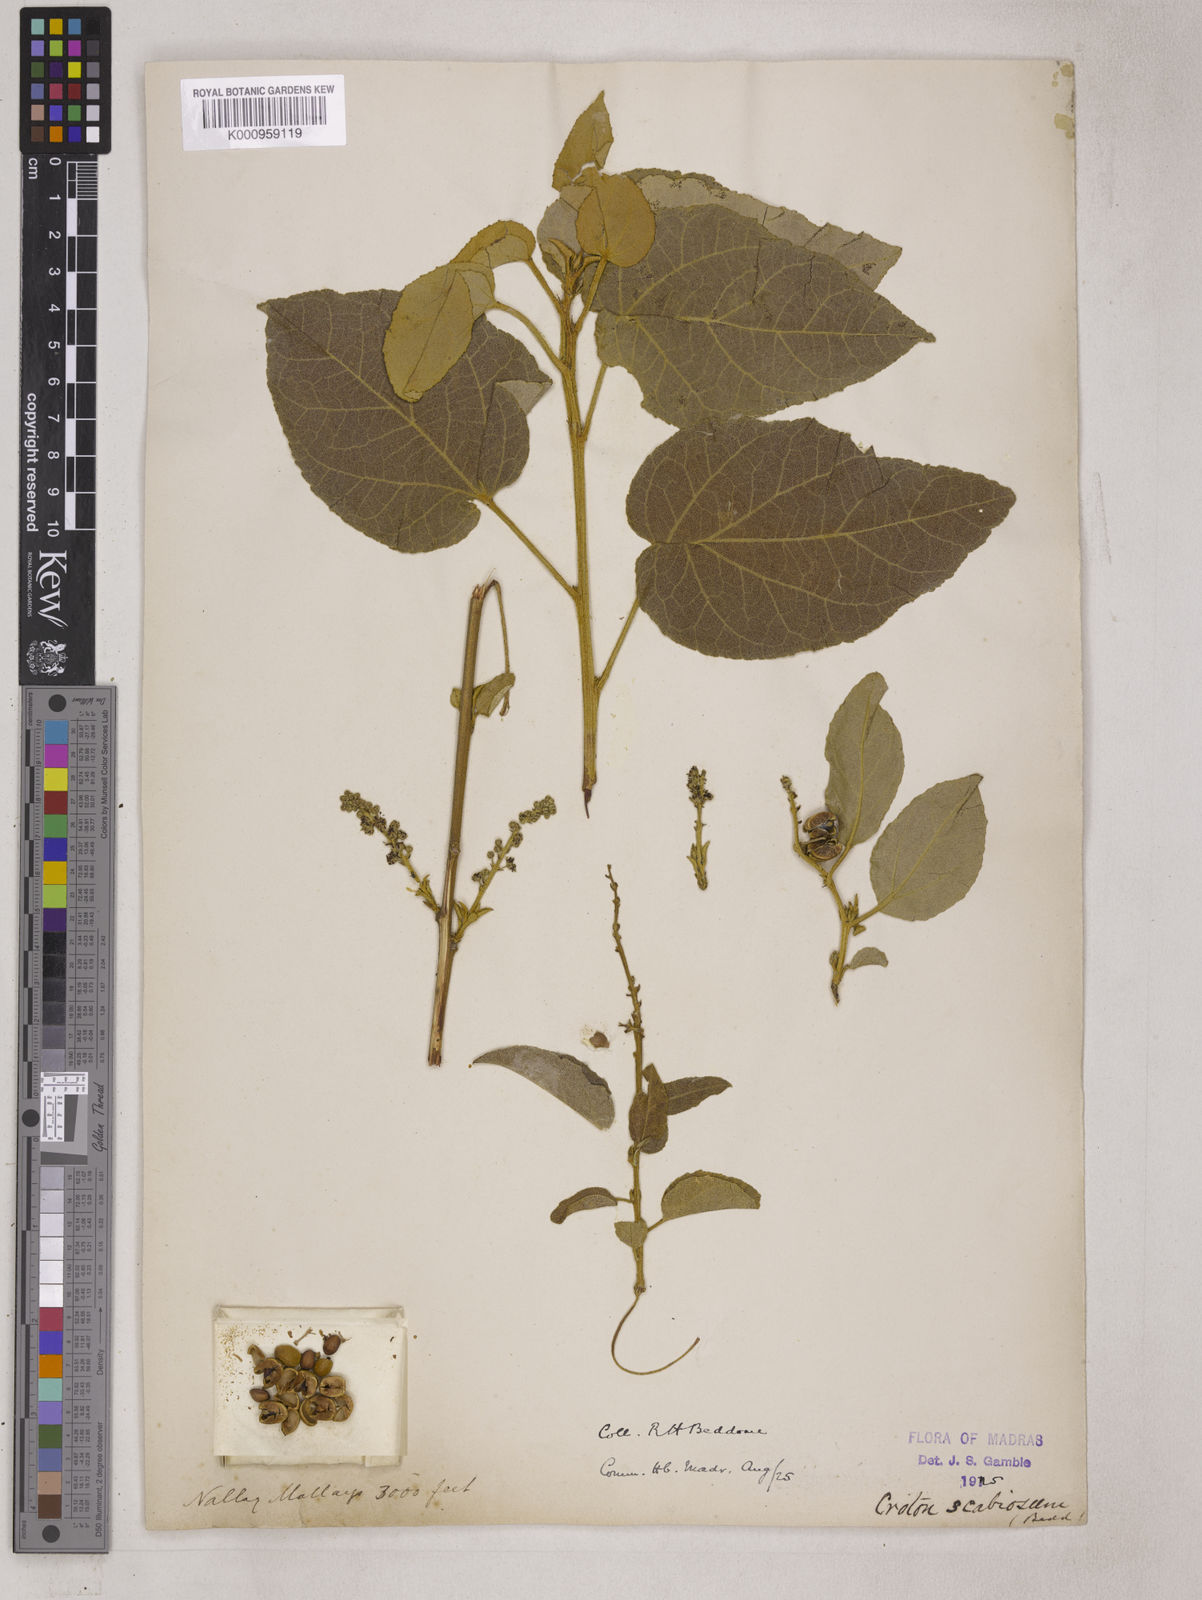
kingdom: Plantae
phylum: Tracheophyta
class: Magnoliopsida
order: Malpighiales
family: Euphorbiaceae
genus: Croton
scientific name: Croton scabiosus
